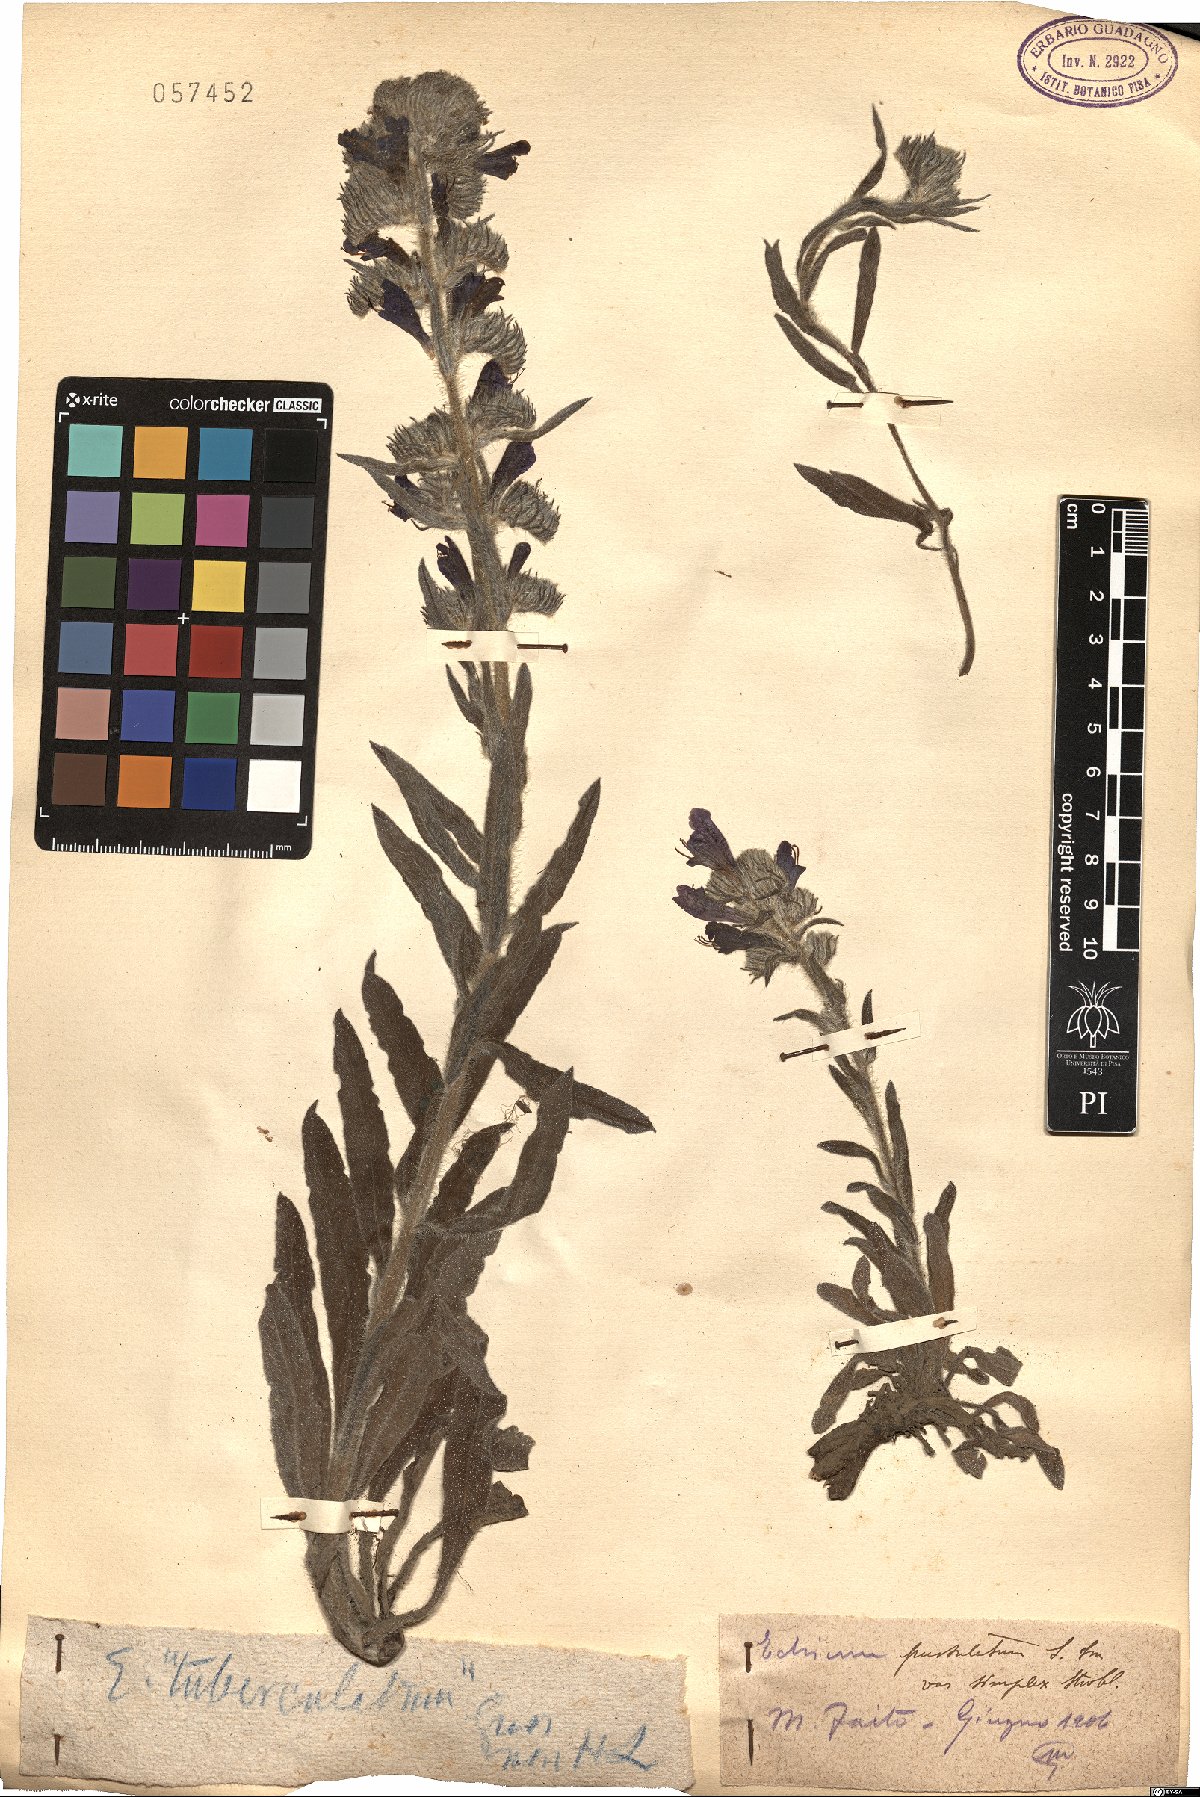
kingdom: Plantae
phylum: Tracheophyta
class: Magnoliopsida
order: Boraginales
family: Boraginaceae
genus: Echium
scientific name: Echium tuberculatum
